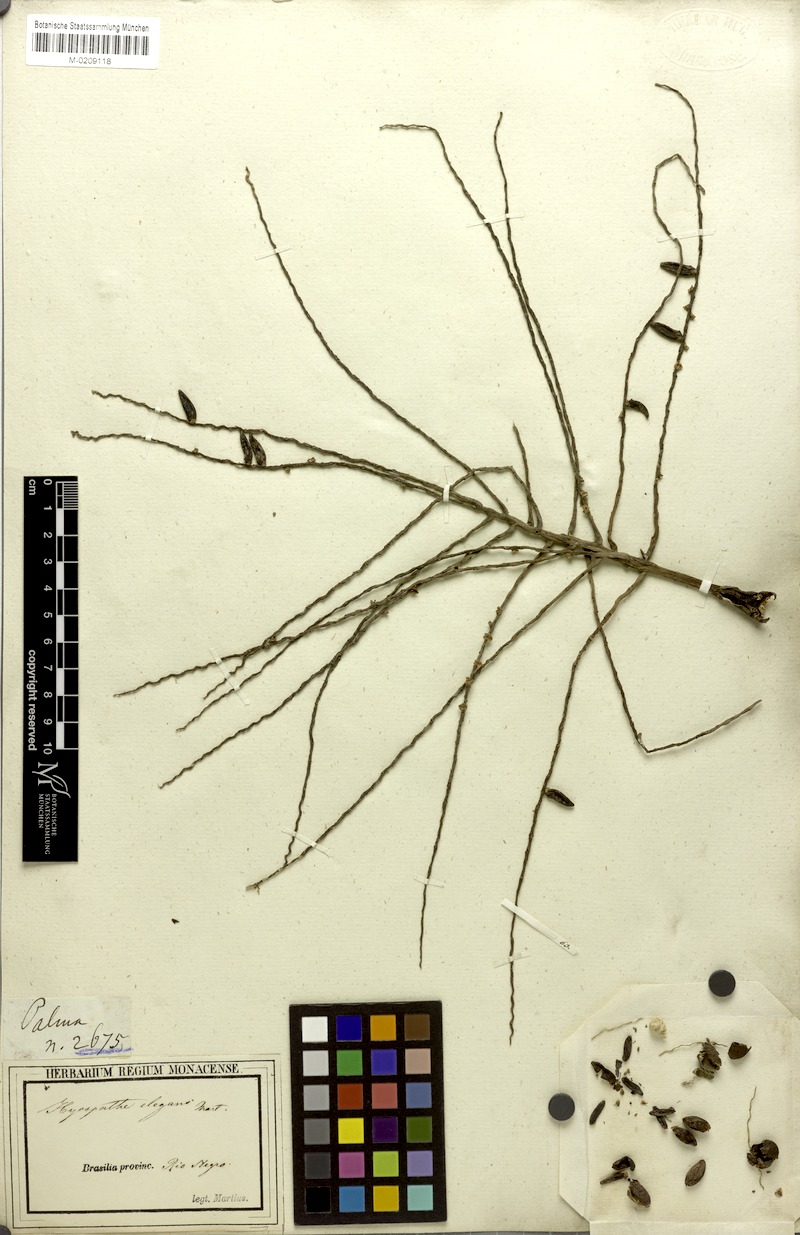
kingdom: Plantae
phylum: Tracheophyta
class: Liliopsida
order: Arecales
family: Arecaceae
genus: Hyospathe
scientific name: Hyospathe elegans
